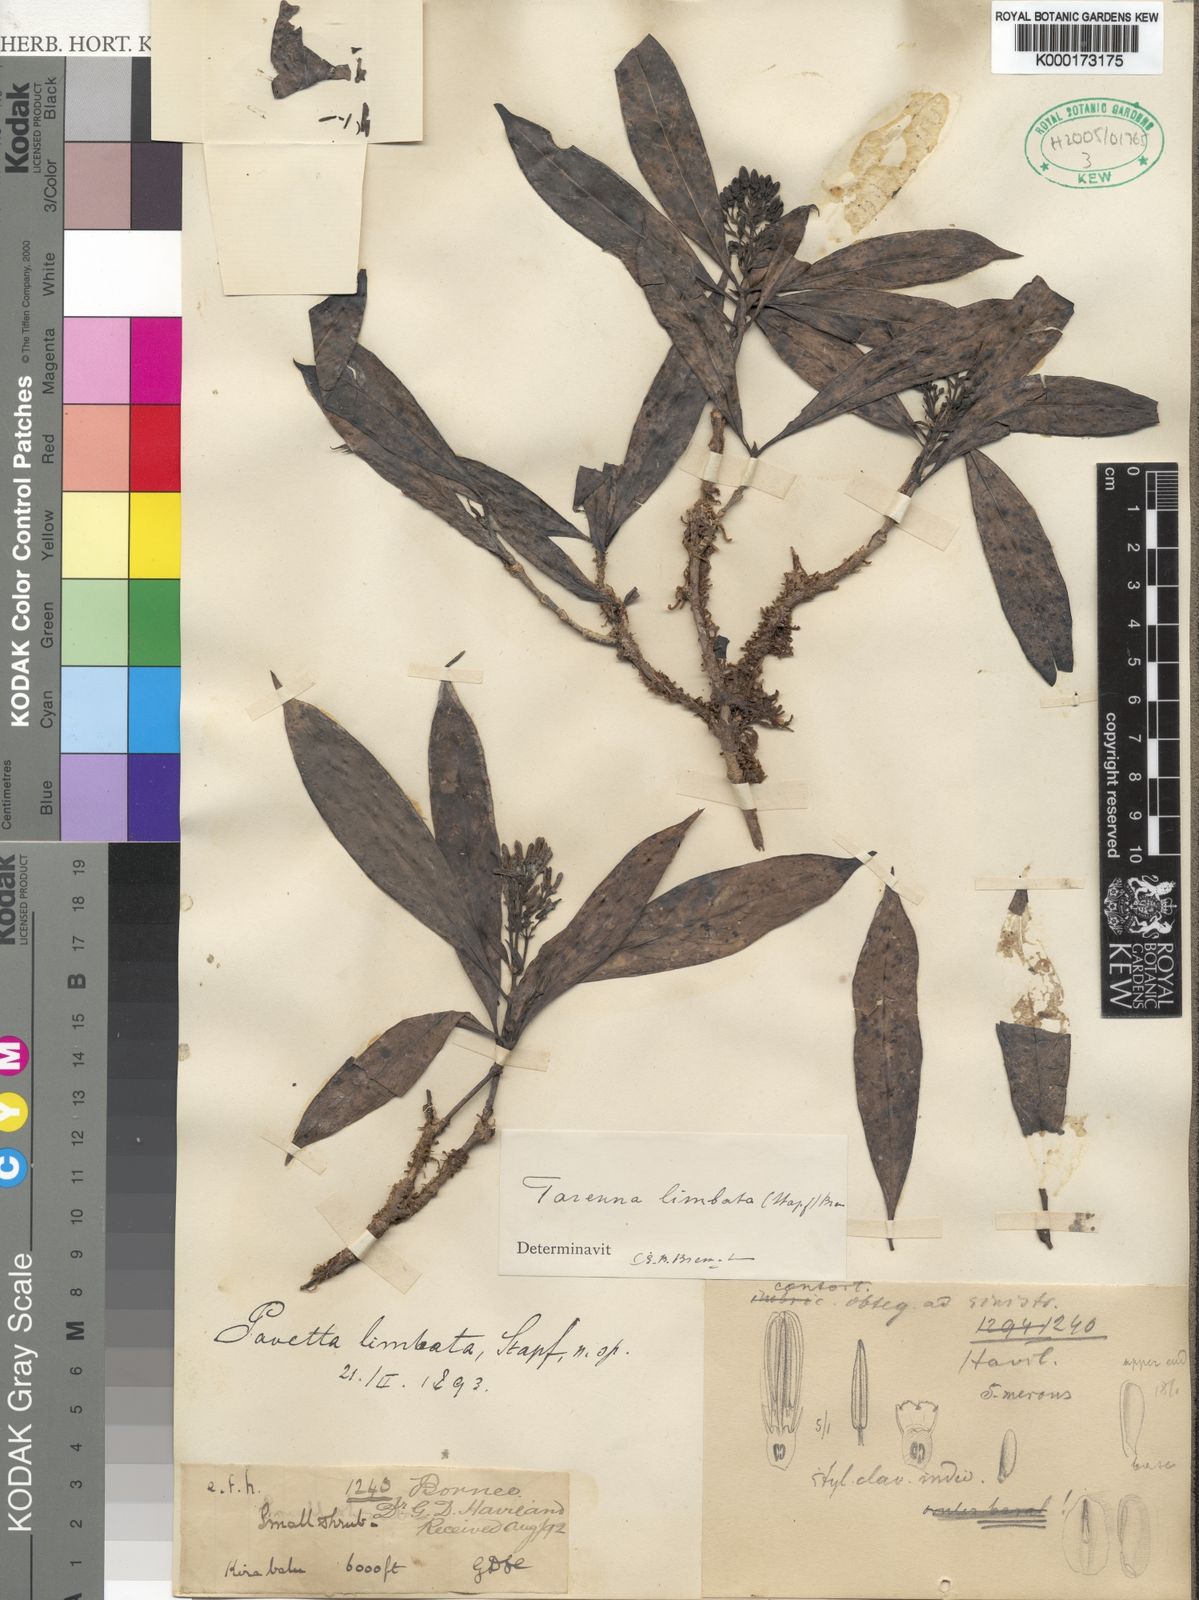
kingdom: Plantae
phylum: Tracheophyta
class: Magnoliopsida
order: Gentianales
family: Rubiaceae
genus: Tarenna
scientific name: Tarenna limbata
